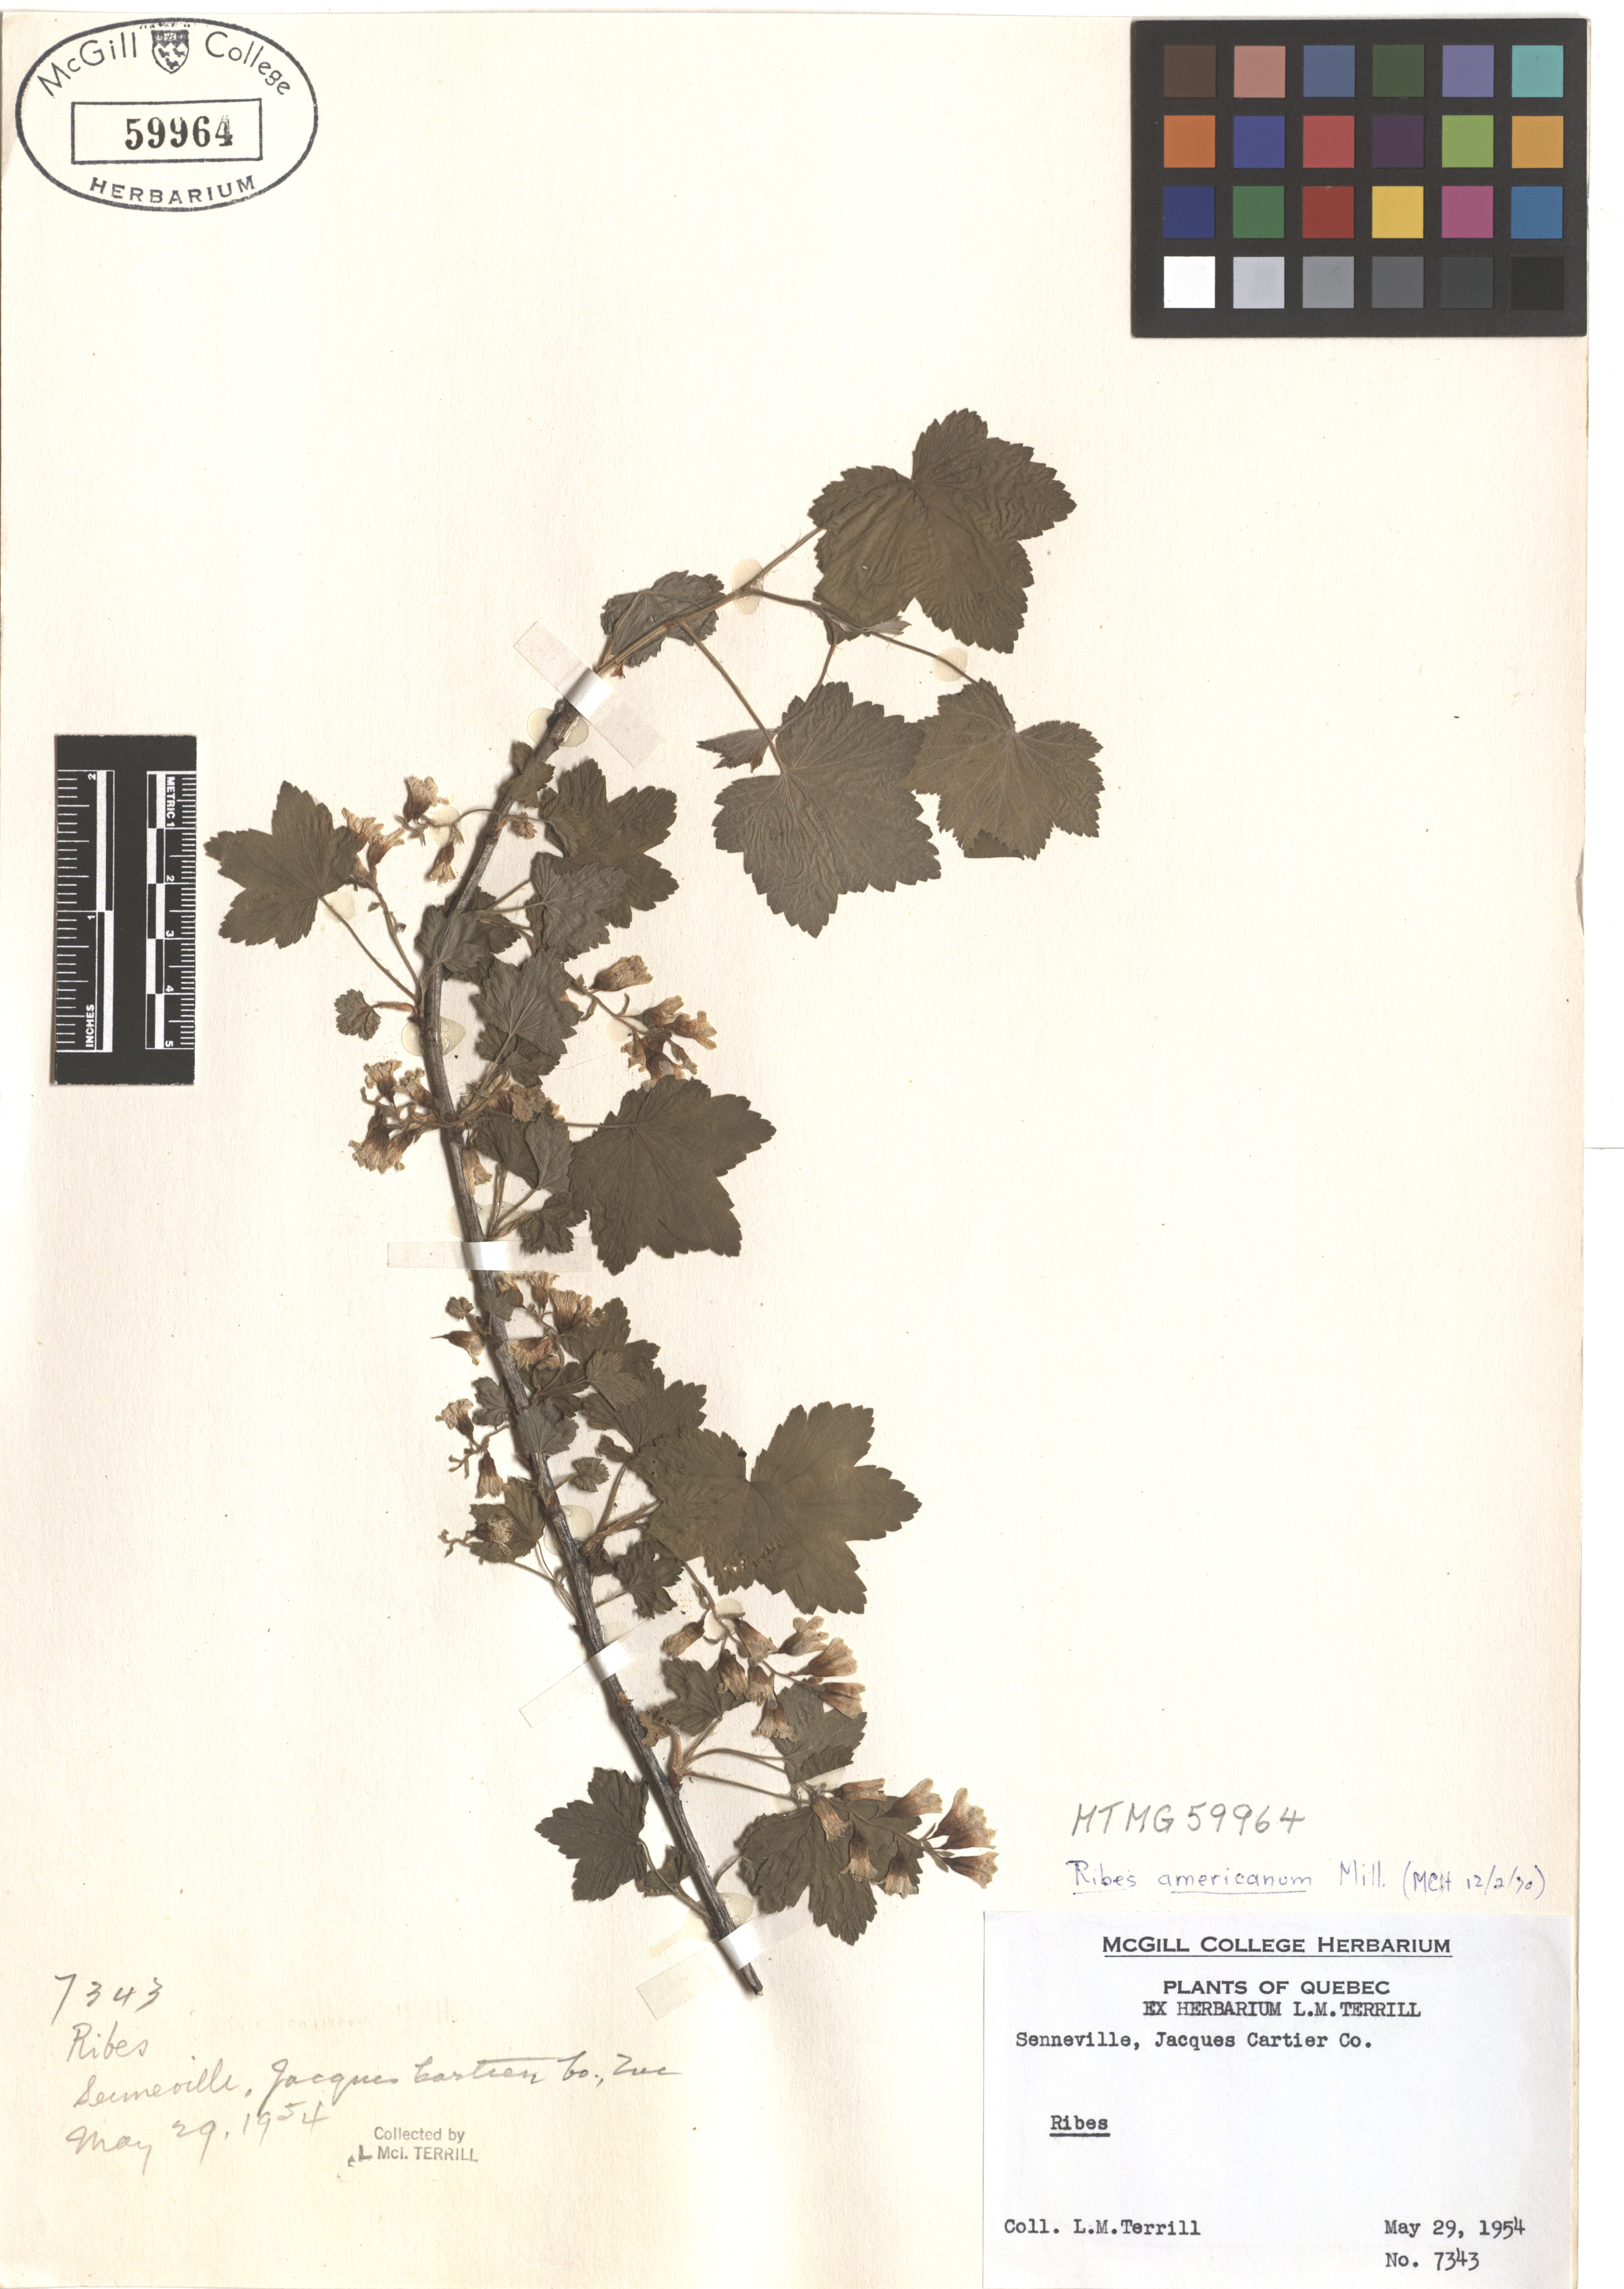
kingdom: Plantae
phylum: Tracheophyta
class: Magnoliopsida
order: Saxifragales
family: Grossulariaceae
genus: Ribes
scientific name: Ribes americanum
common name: American black currant
